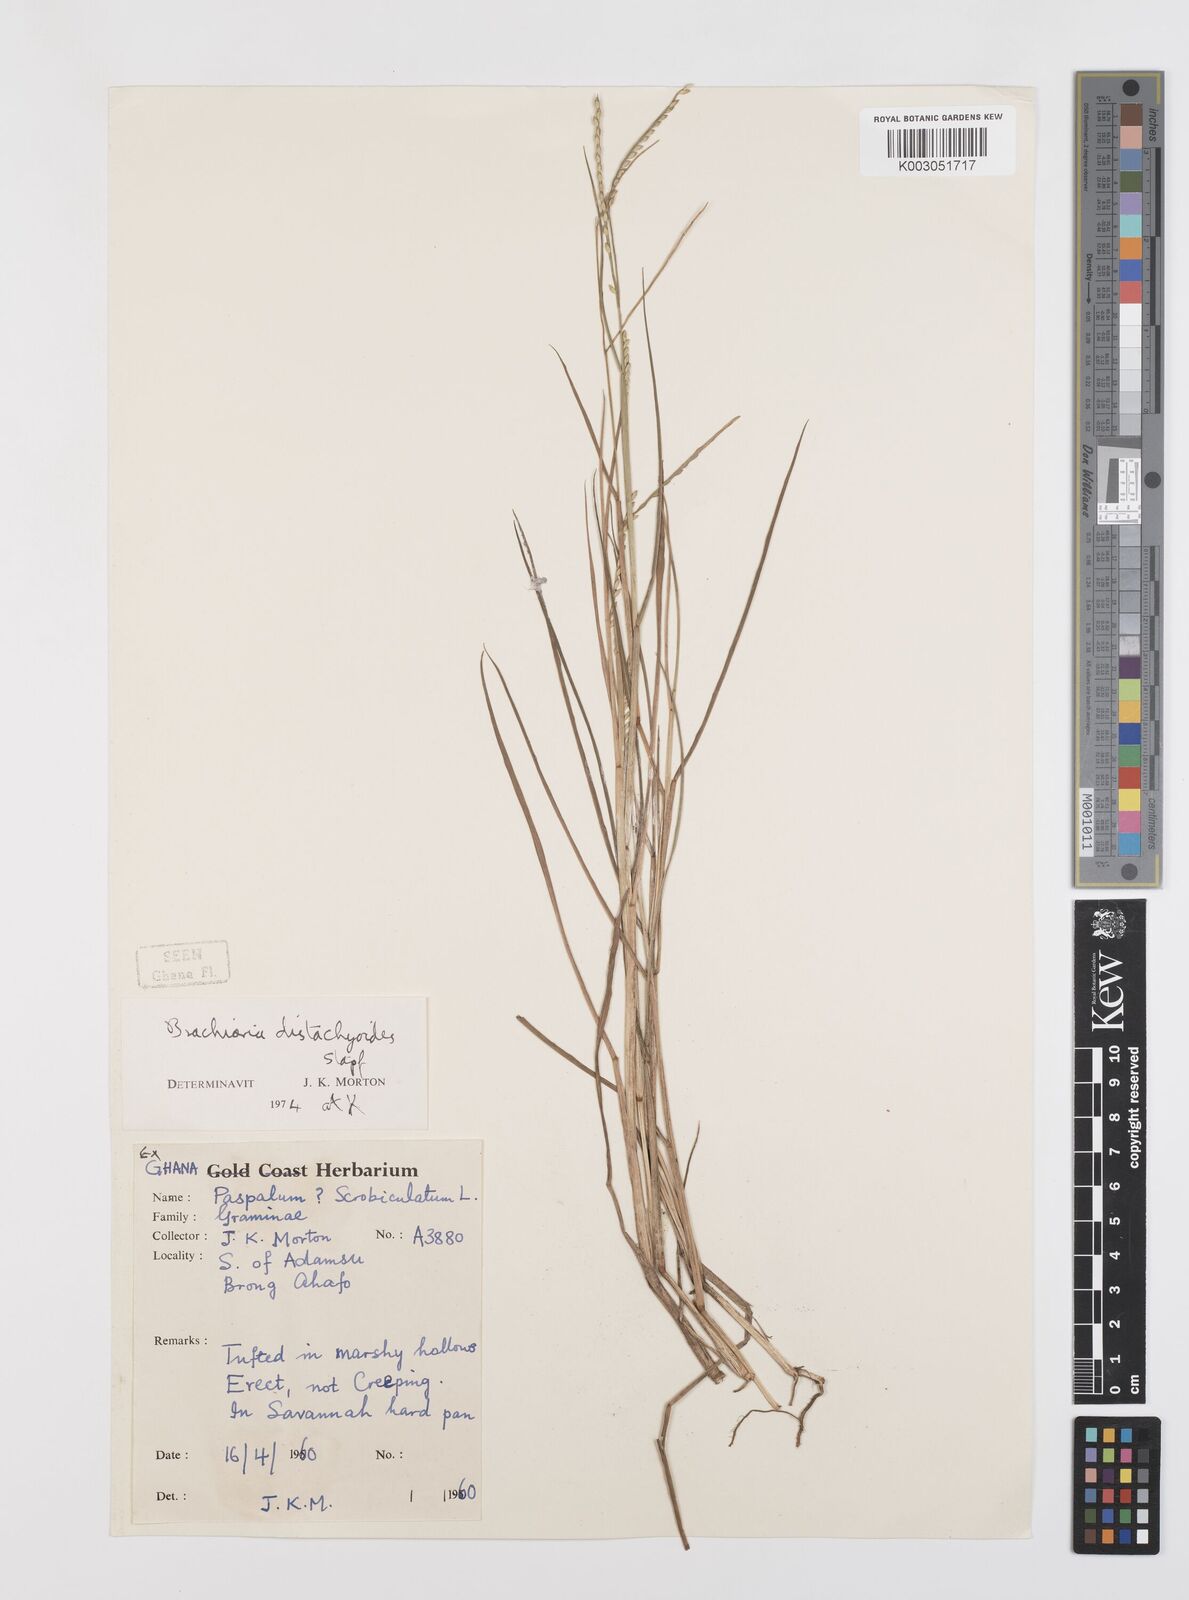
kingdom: Plantae
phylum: Tracheophyta
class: Liliopsida
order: Poales
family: Poaceae
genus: Urochloa
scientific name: Urochloa distachyoides
